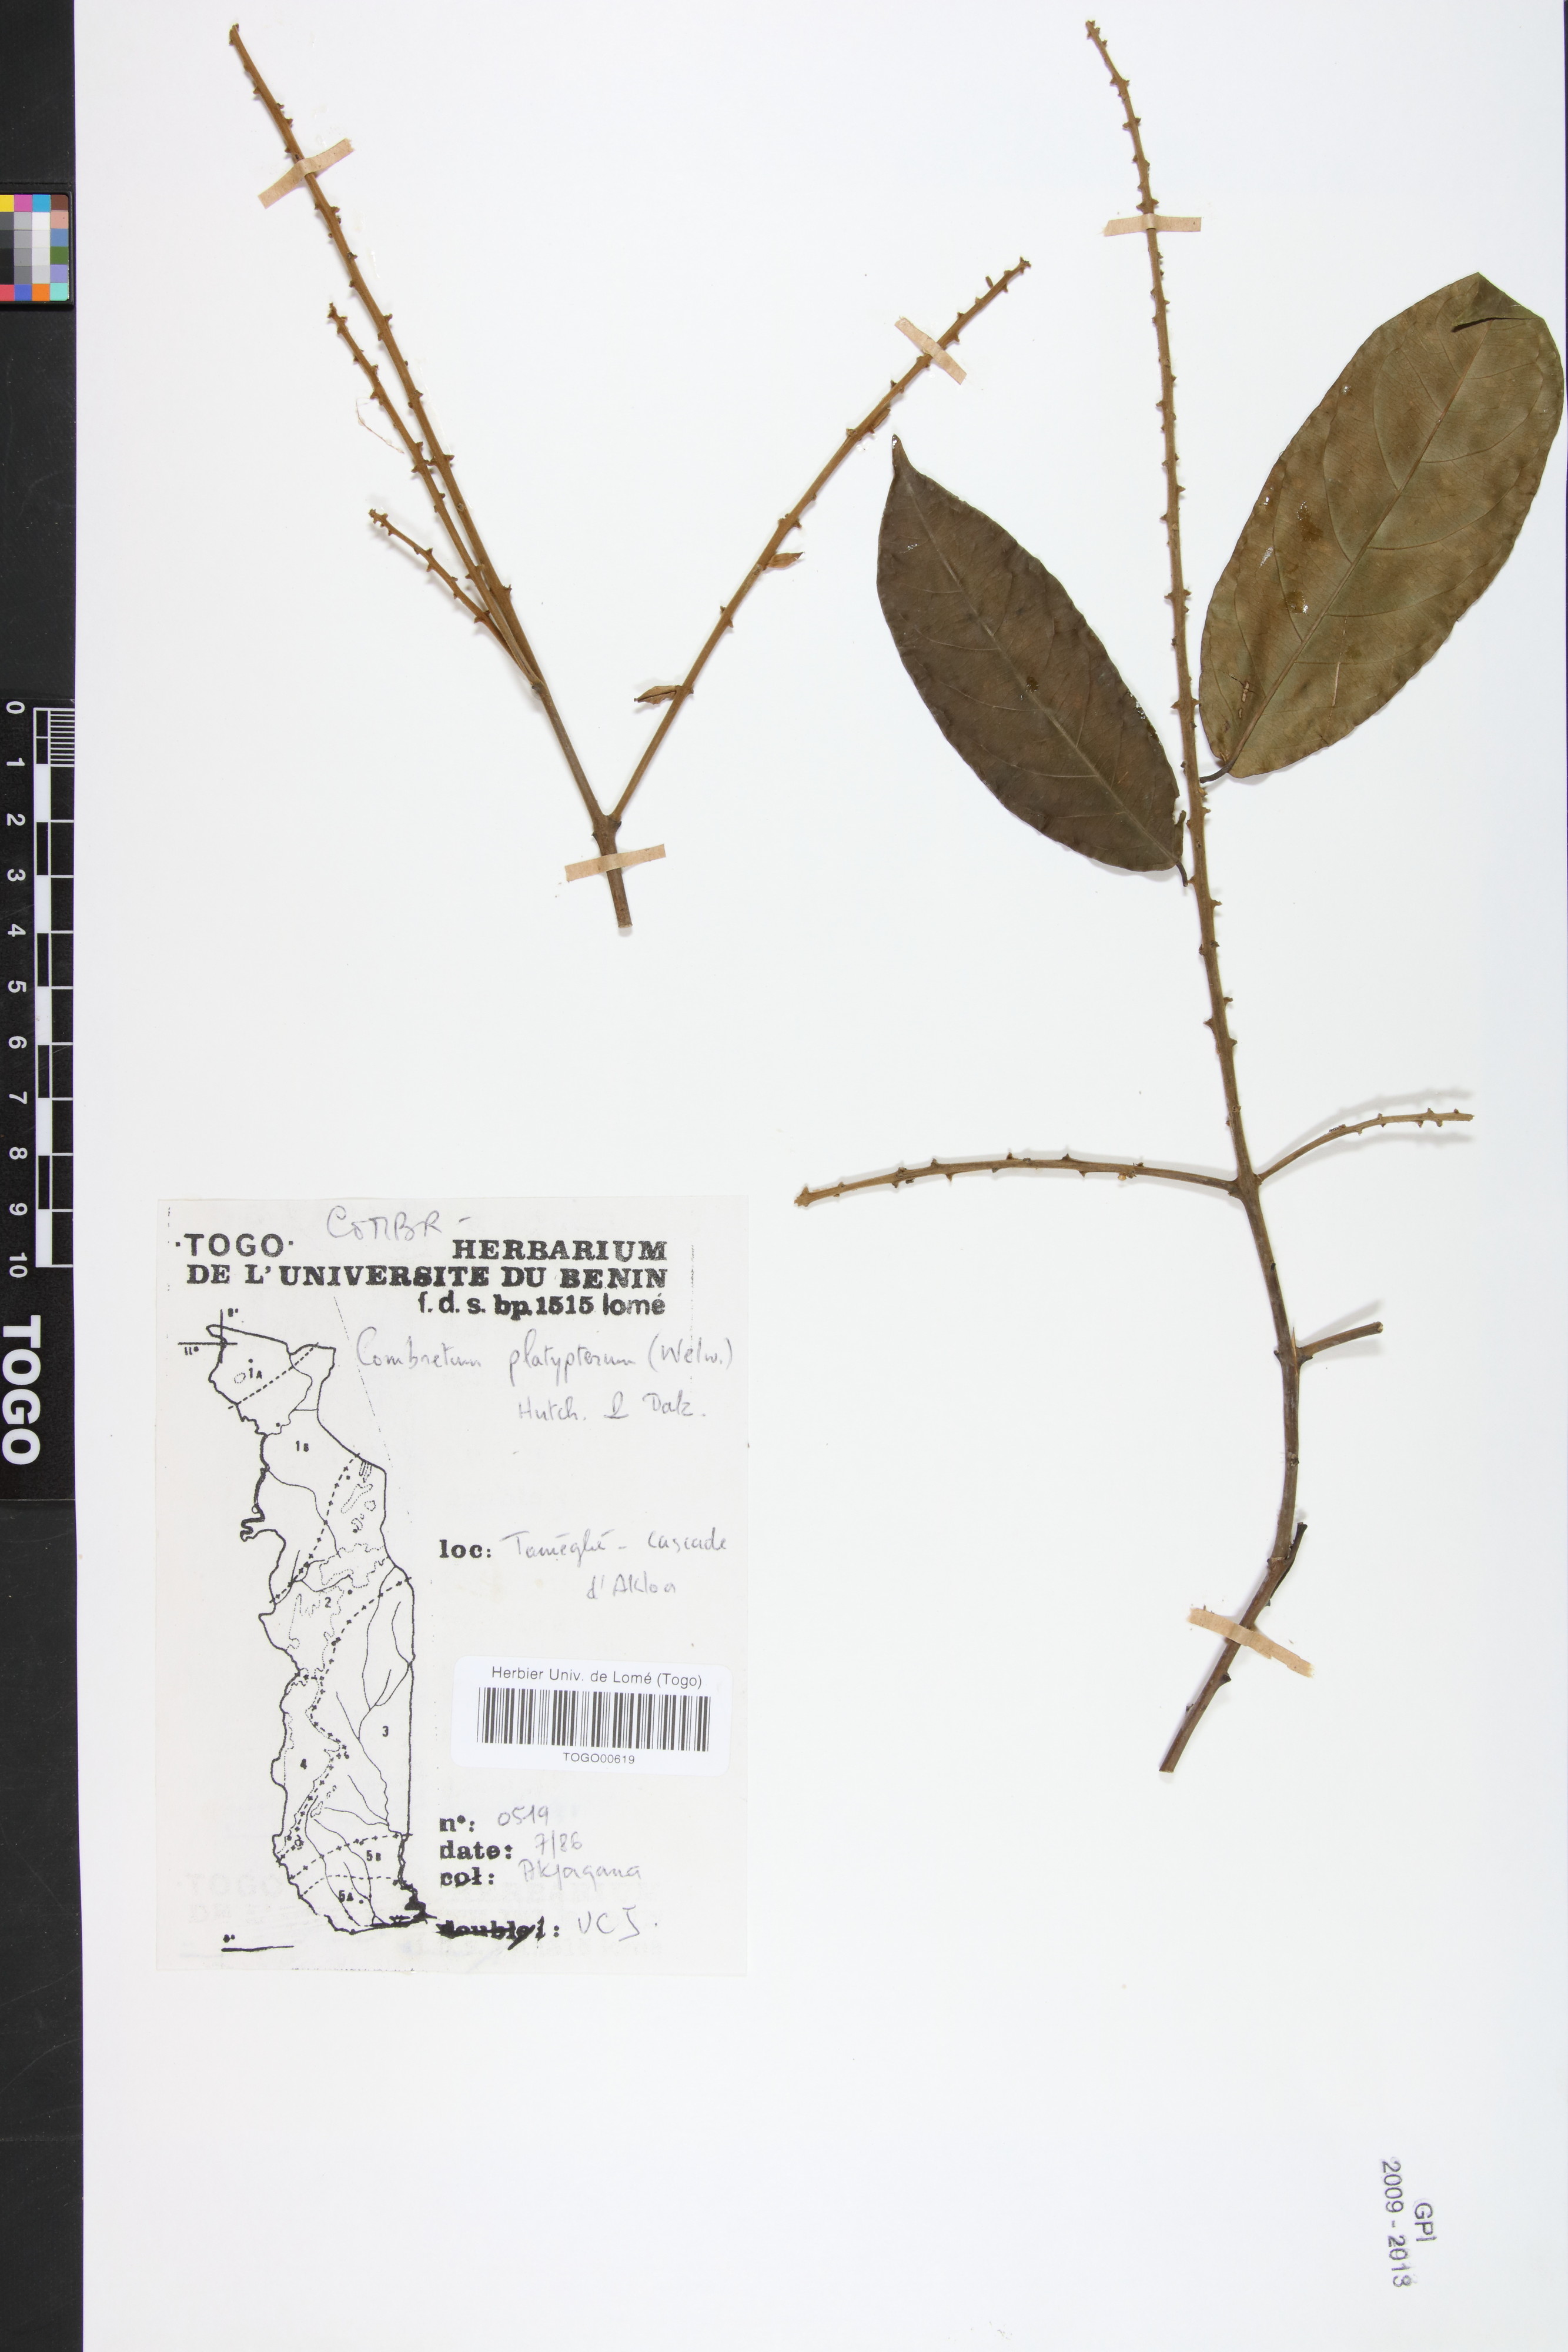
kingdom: Plantae
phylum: Tracheophyta
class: Magnoliopsida
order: Myrtales
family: Combretaceae
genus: Combretum
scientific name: Combretum platypterum
